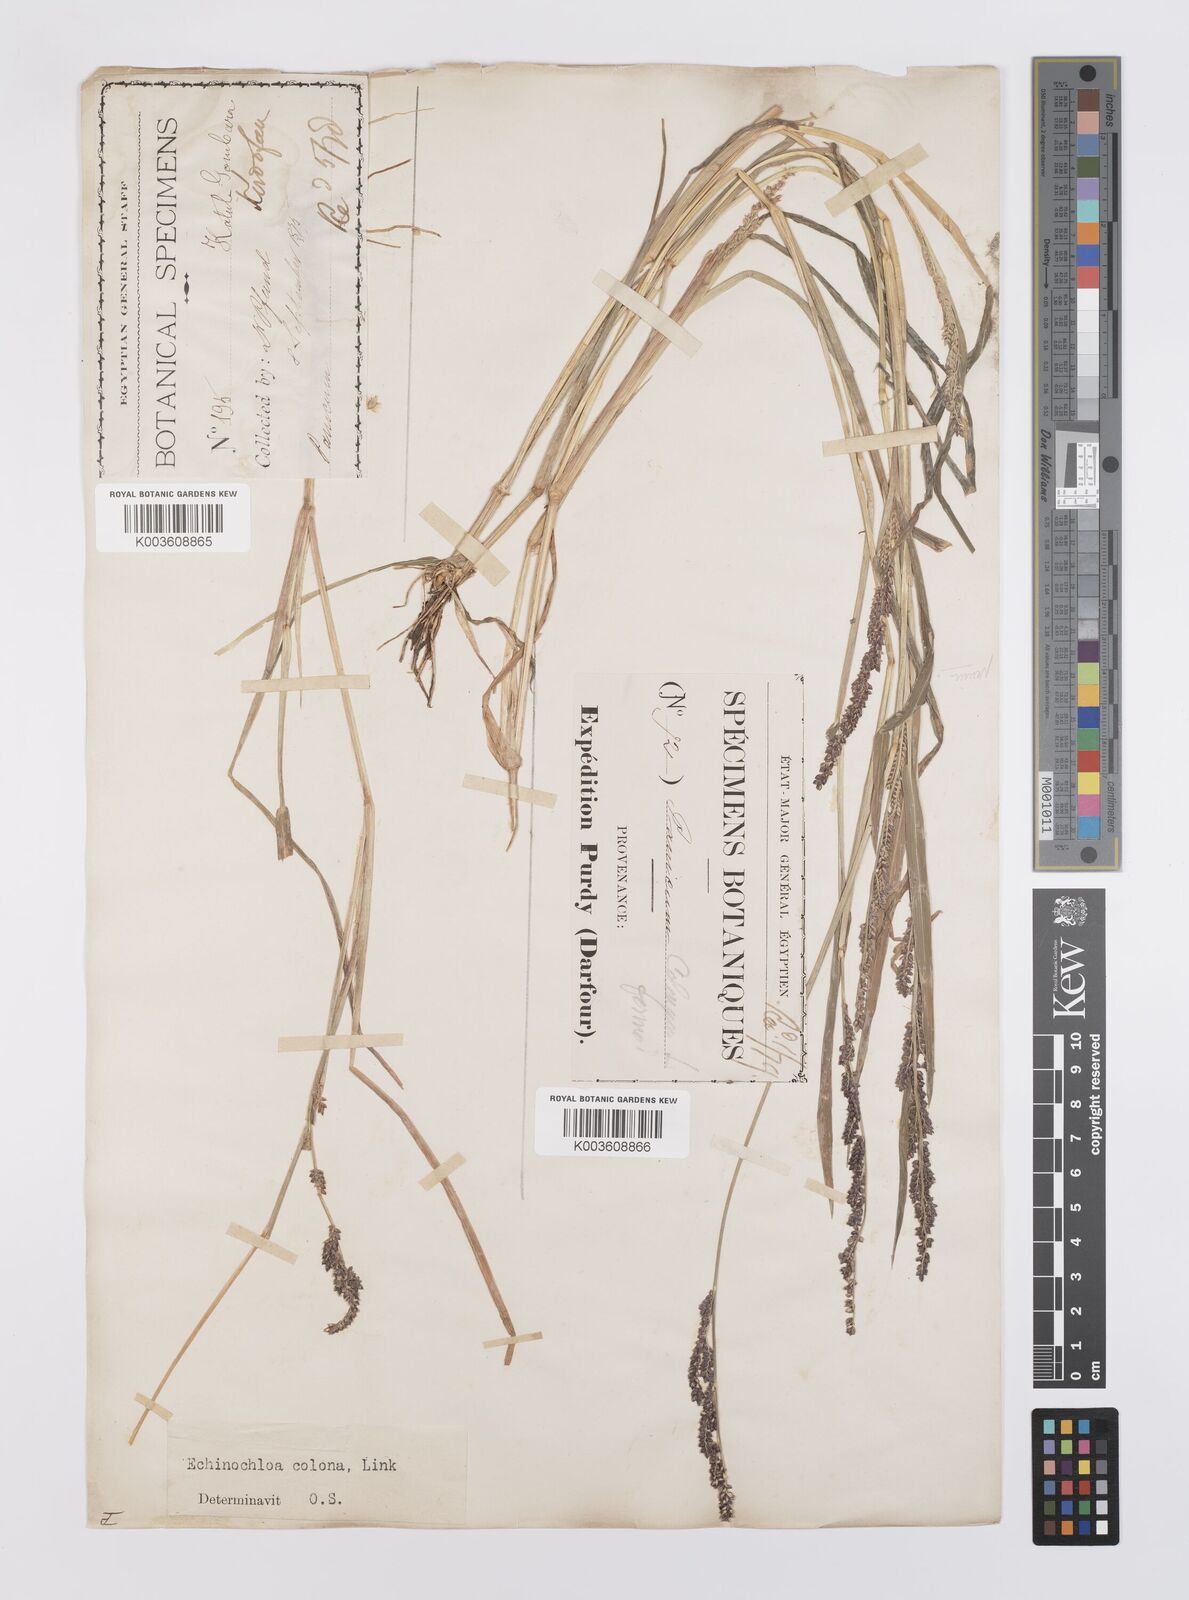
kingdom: Plantae
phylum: Tracheophyta
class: Liliopsida
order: Poales
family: Poaceae
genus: Echinochloa
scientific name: Echinochloa colonum
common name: Jungle rice
